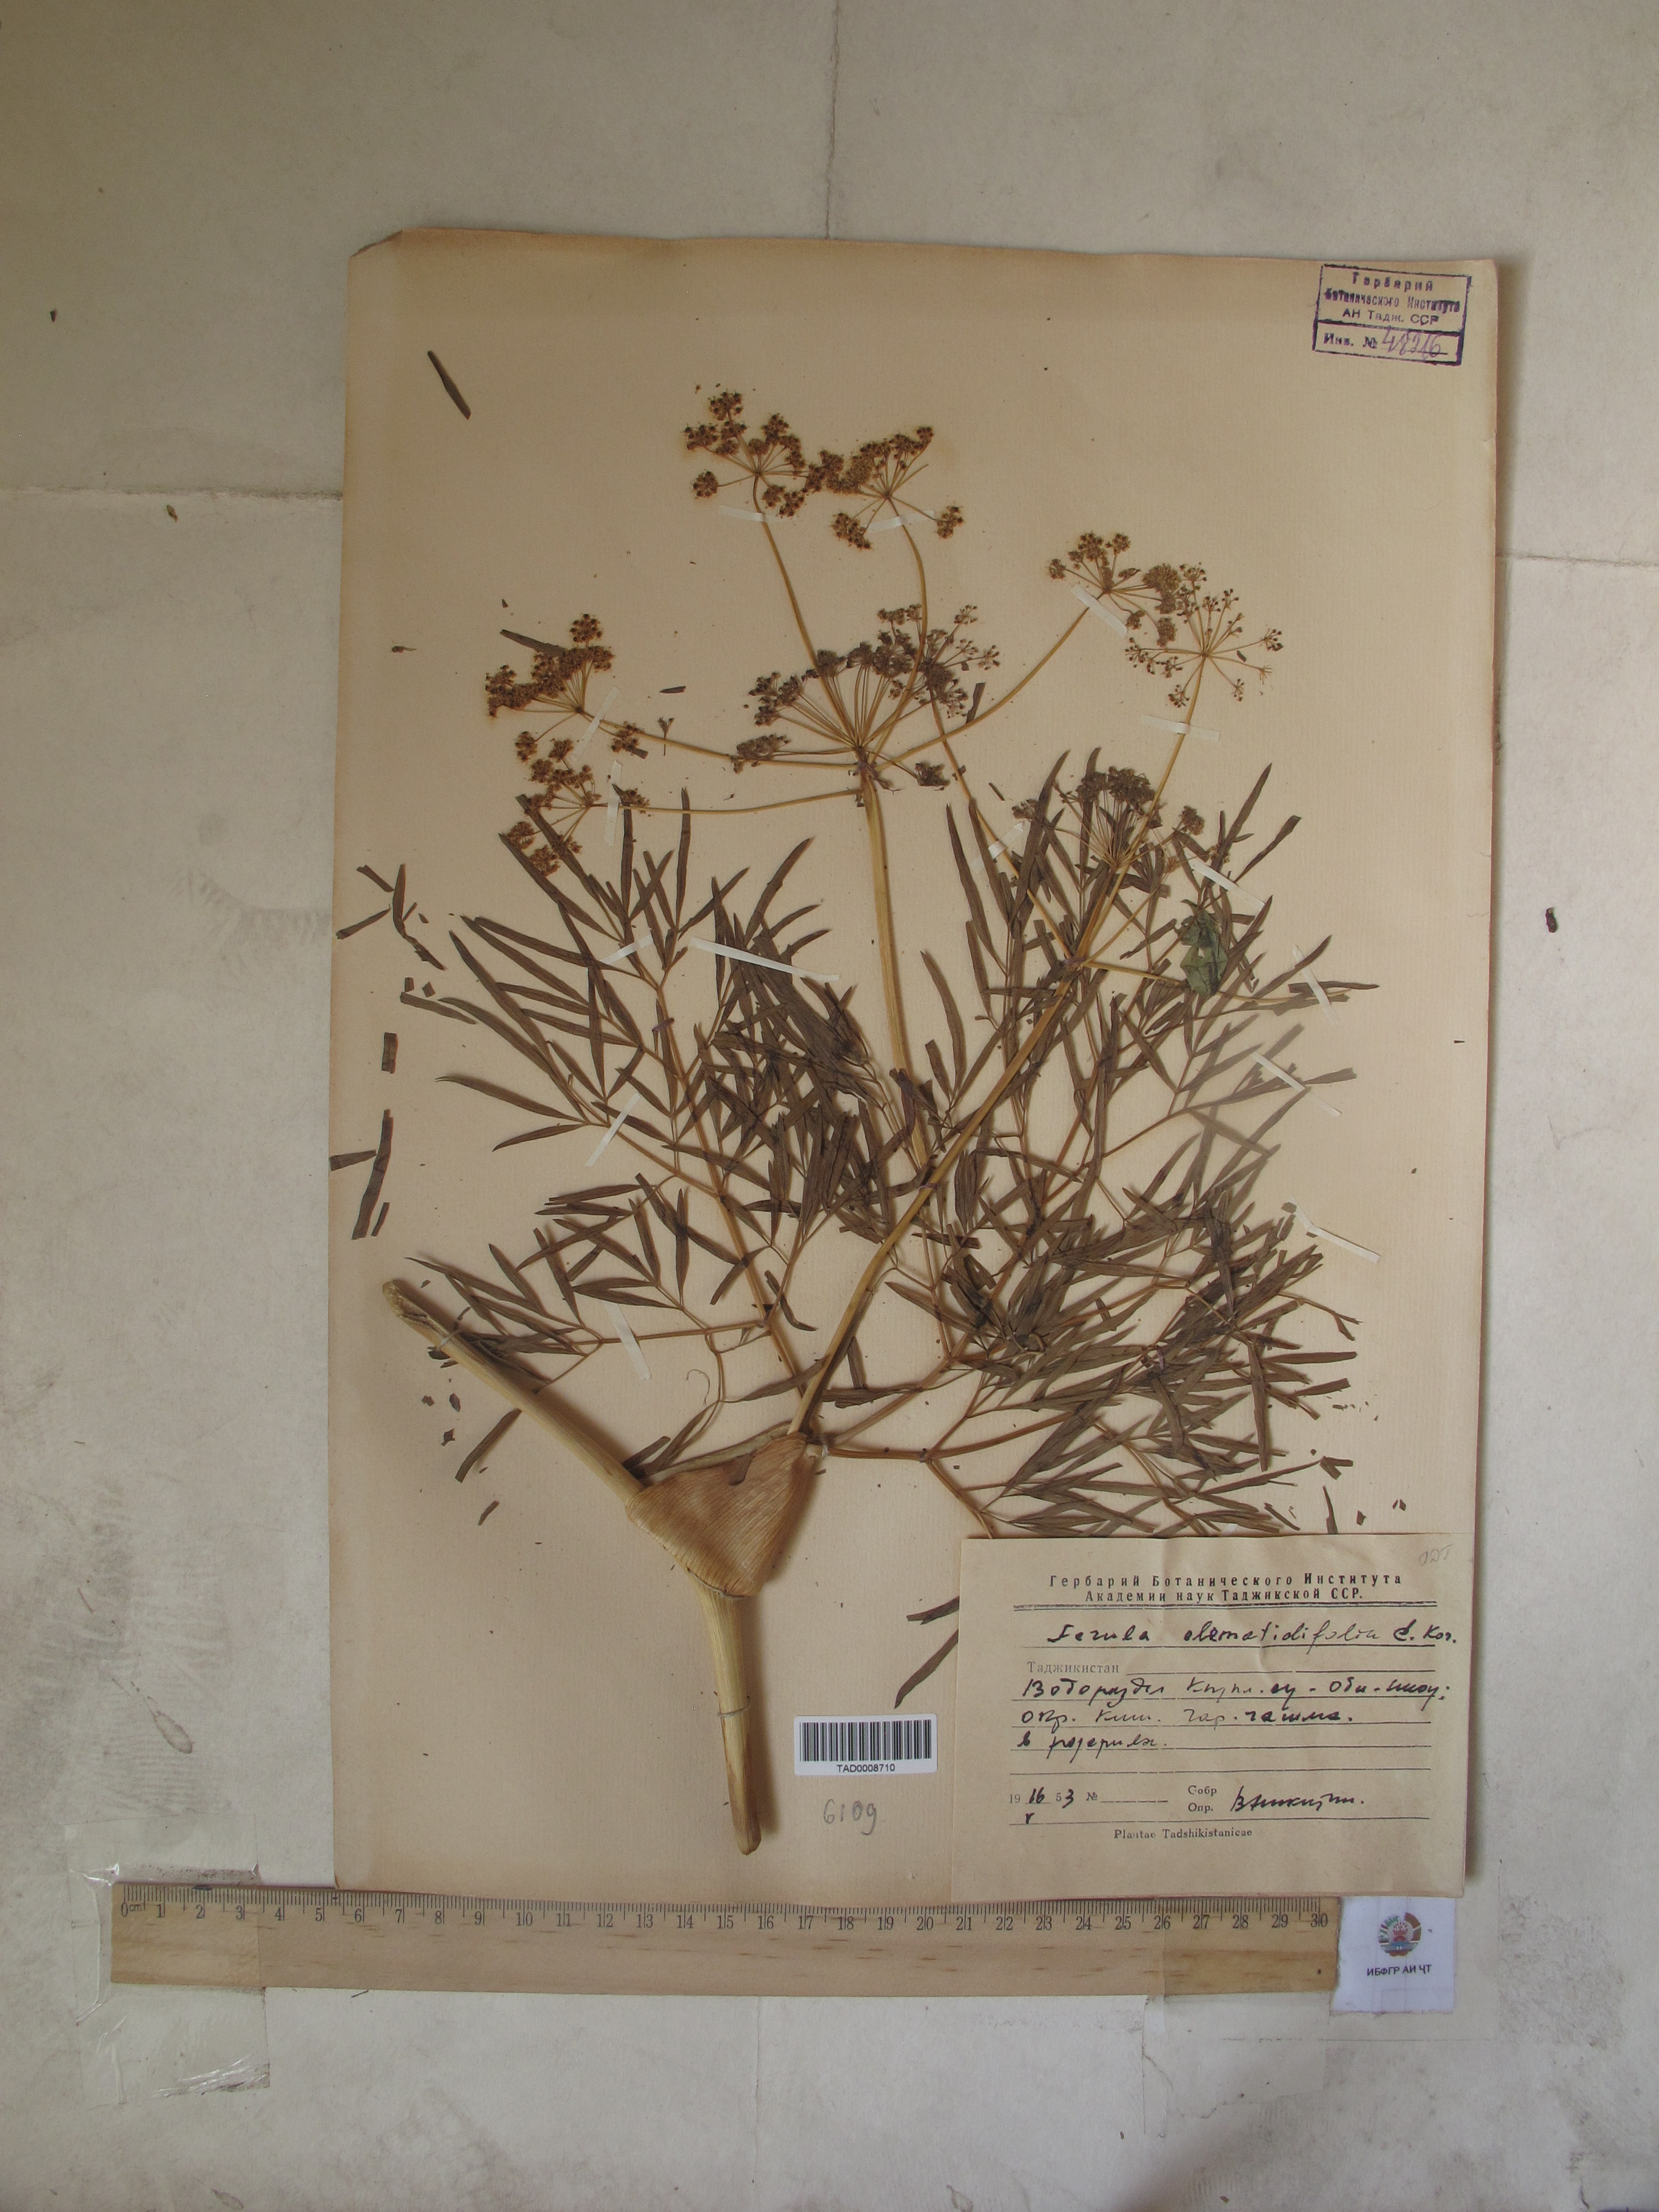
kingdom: Plantae
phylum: Tracheophyta
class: Magnoliopsida
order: Apiales
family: Apiaceae
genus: Ferula
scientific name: Ferula clematidifolia
